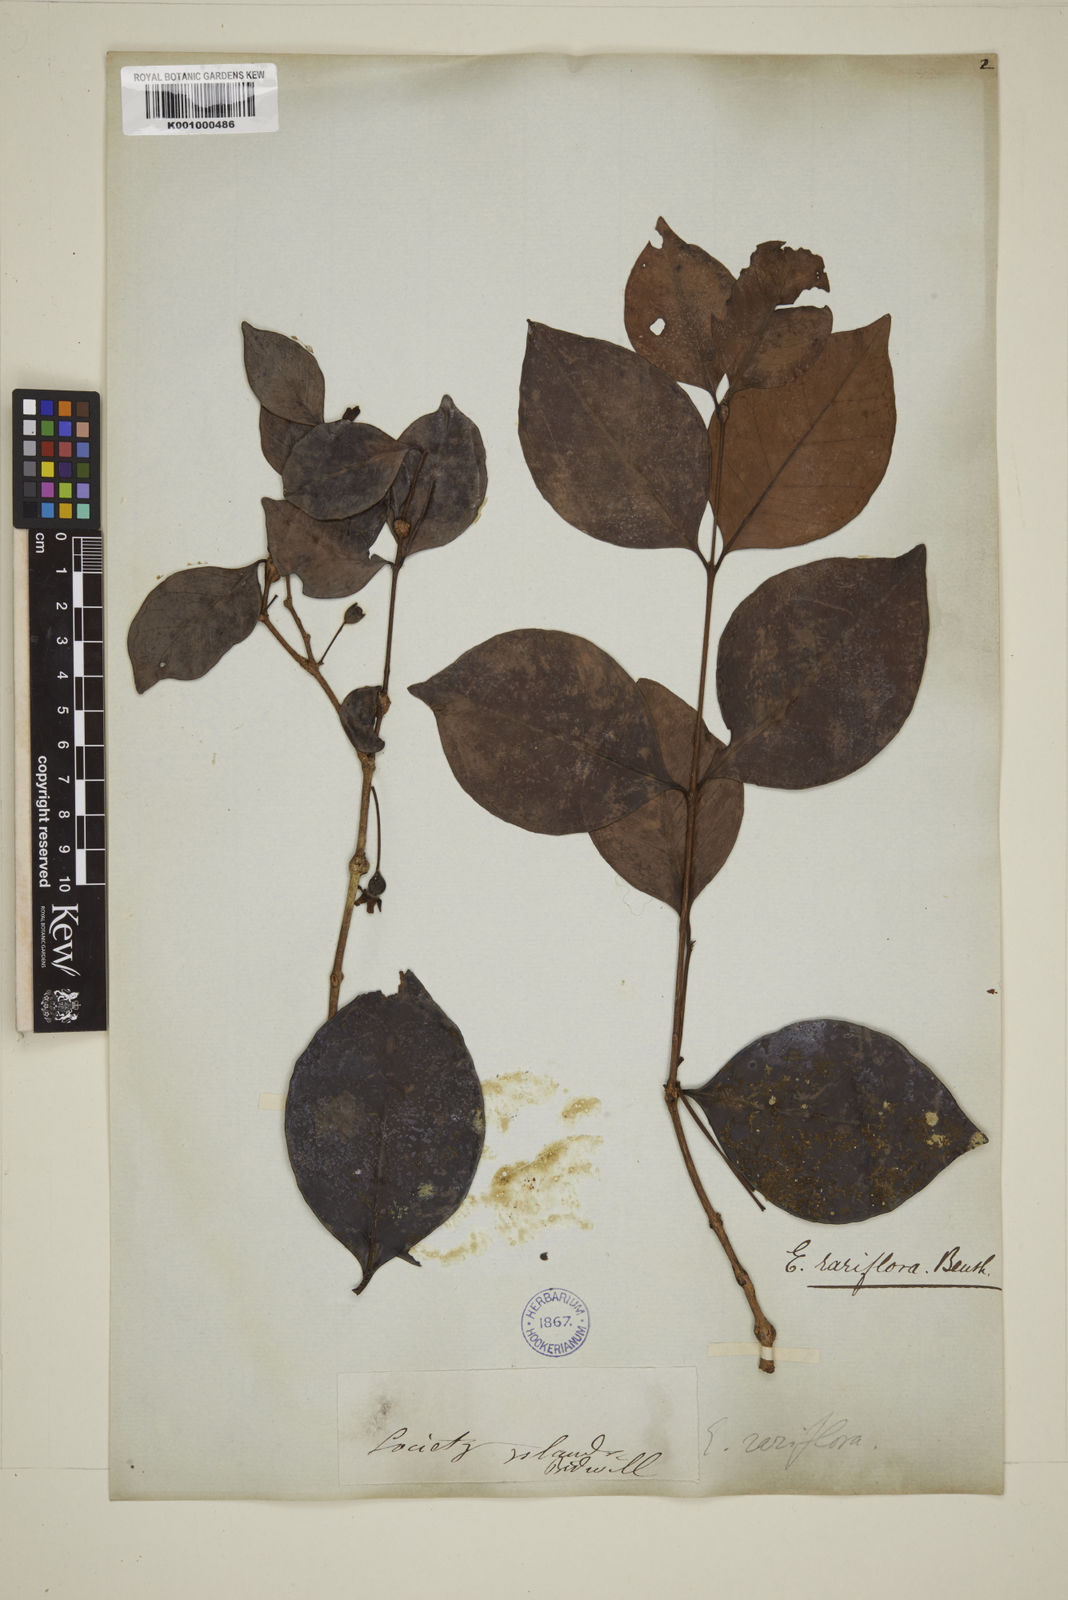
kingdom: Plantae
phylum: Tracheophyta
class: Magnoliopsida
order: Myrtales
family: Myrtaceae
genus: Eugenia
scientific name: Eugenia reinwardtiana
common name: Cedar bay-cherry
